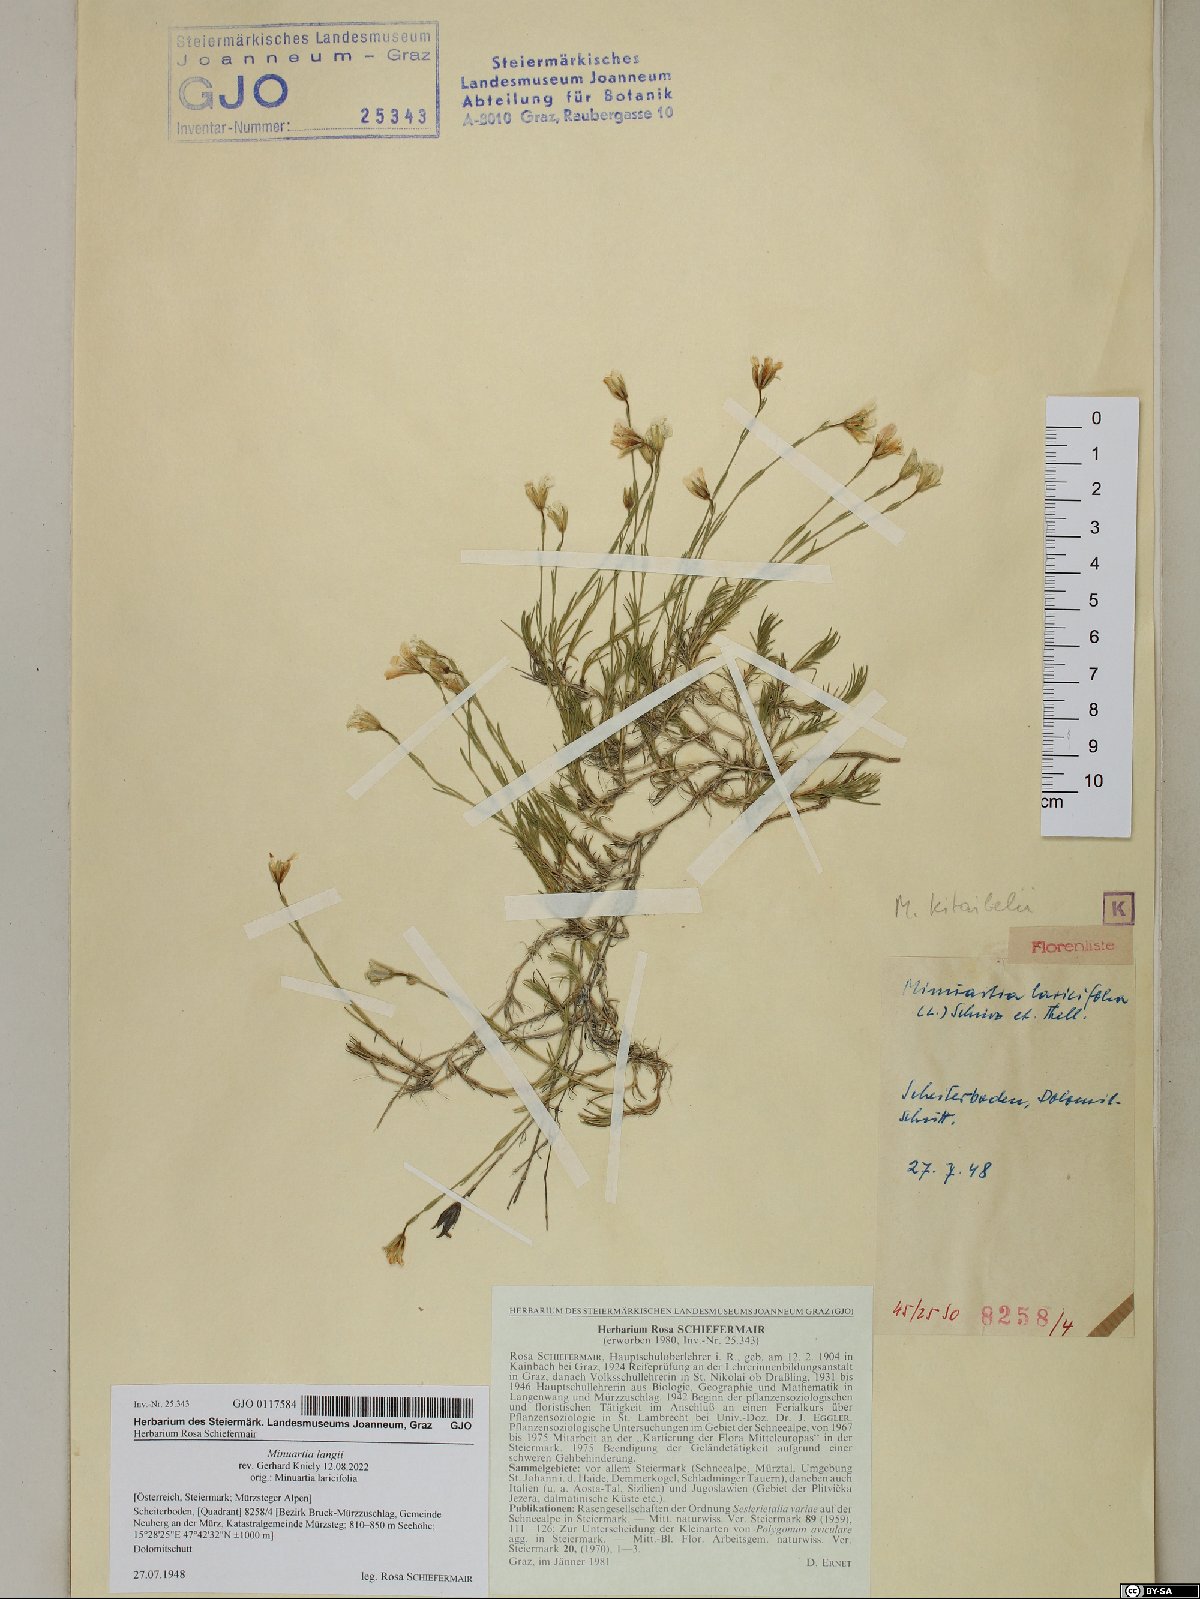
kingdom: Plantae
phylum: Tracheophyta
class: Magnoliopsida
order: Caryophyllales
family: Caryophyllaceae
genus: Cherleria
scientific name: Cherleria langii
